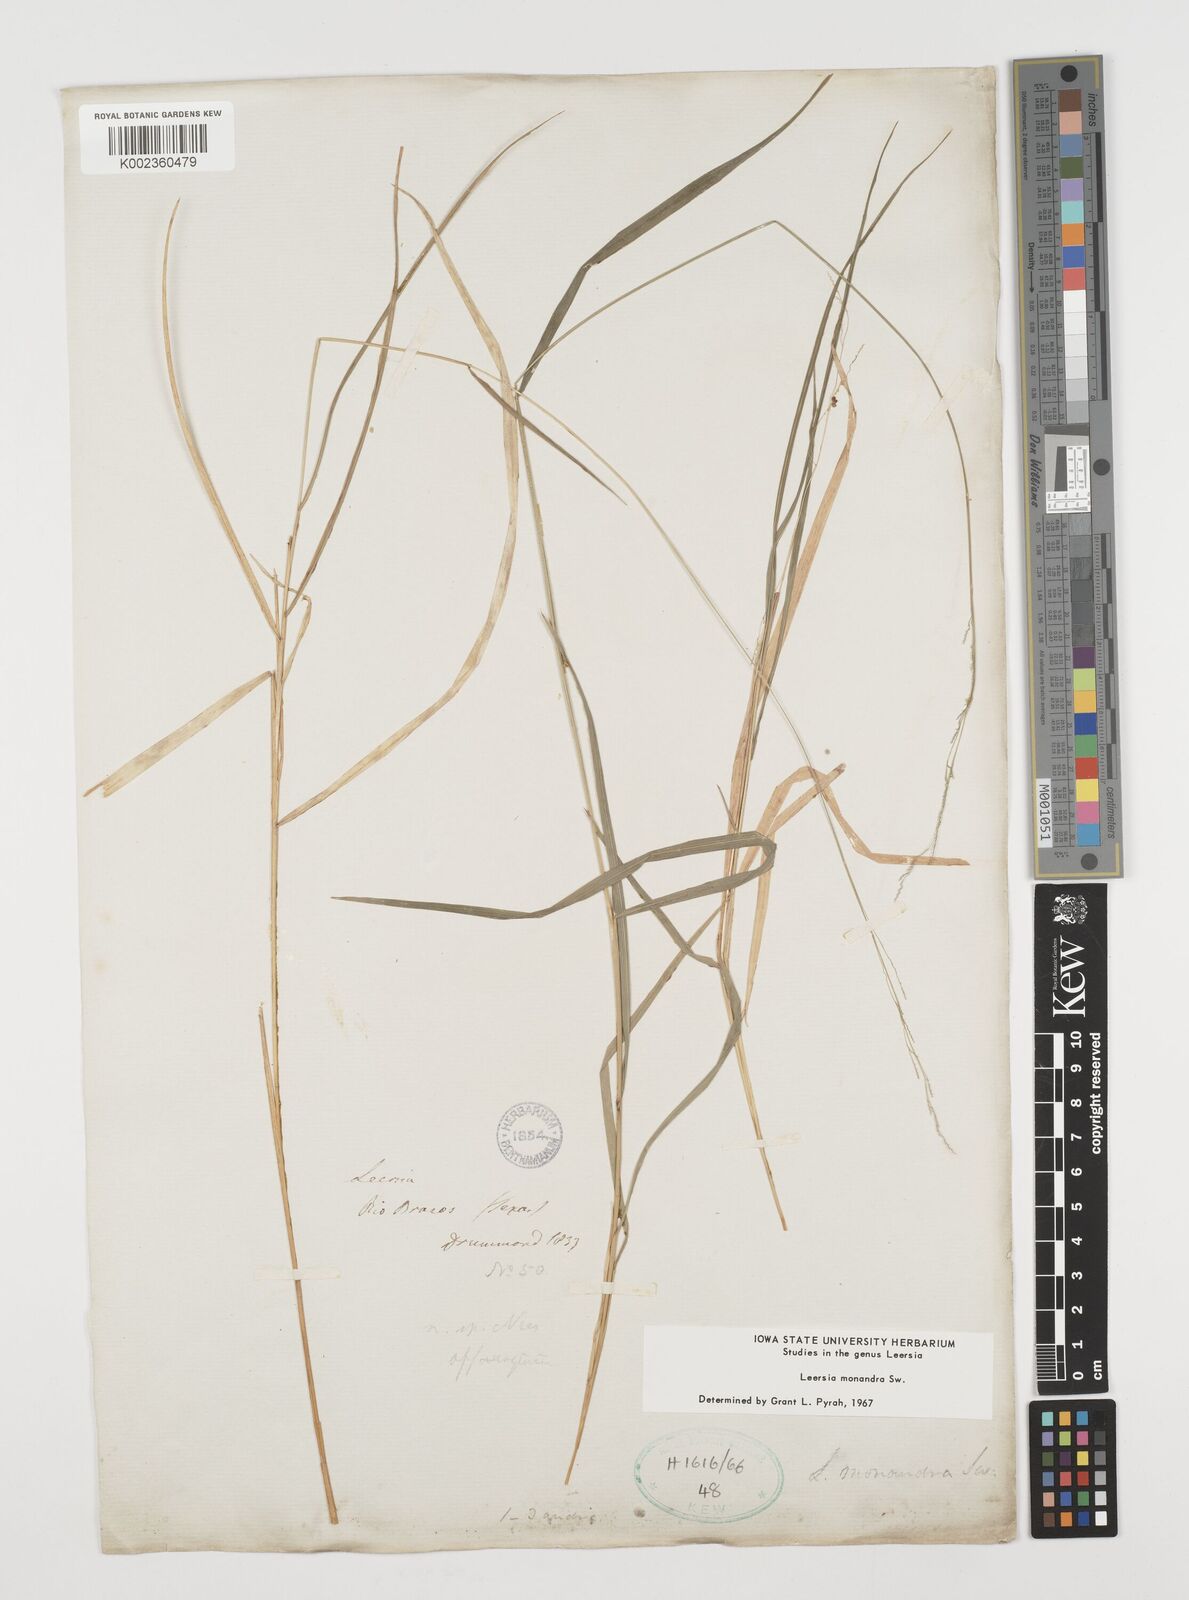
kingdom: Plantae
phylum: Tracheophyta
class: Liliopsida
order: Poales
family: Poaceae
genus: Leersia
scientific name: Leersia monandra
